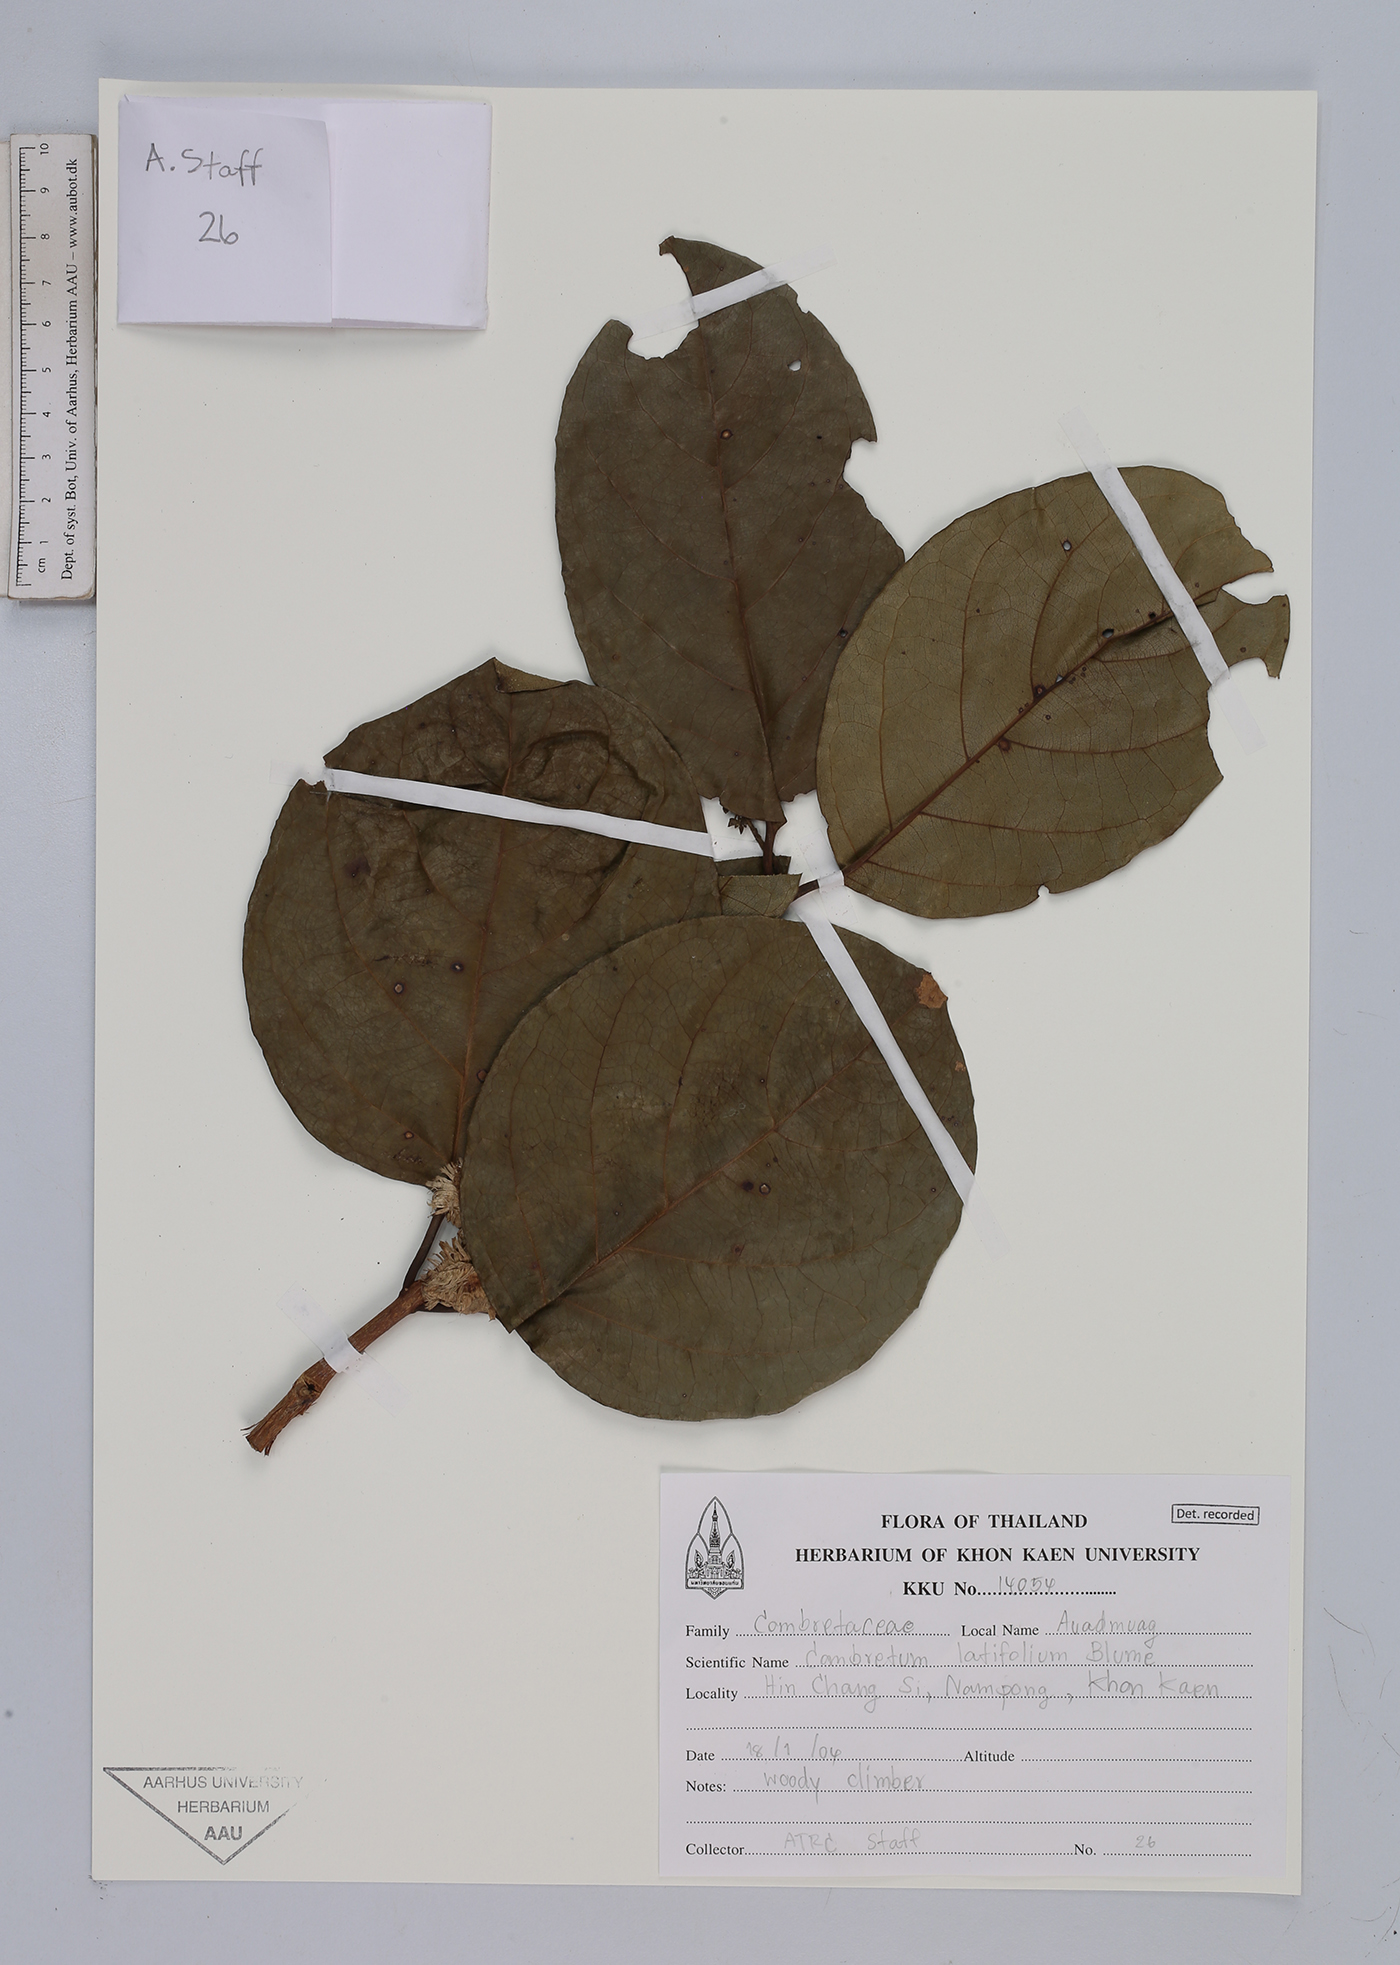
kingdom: Plantae
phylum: Tracheophyta
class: Magnoliopsida
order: Myrtales
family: Combretaceae
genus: Combretum
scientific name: Combretum latifolium
